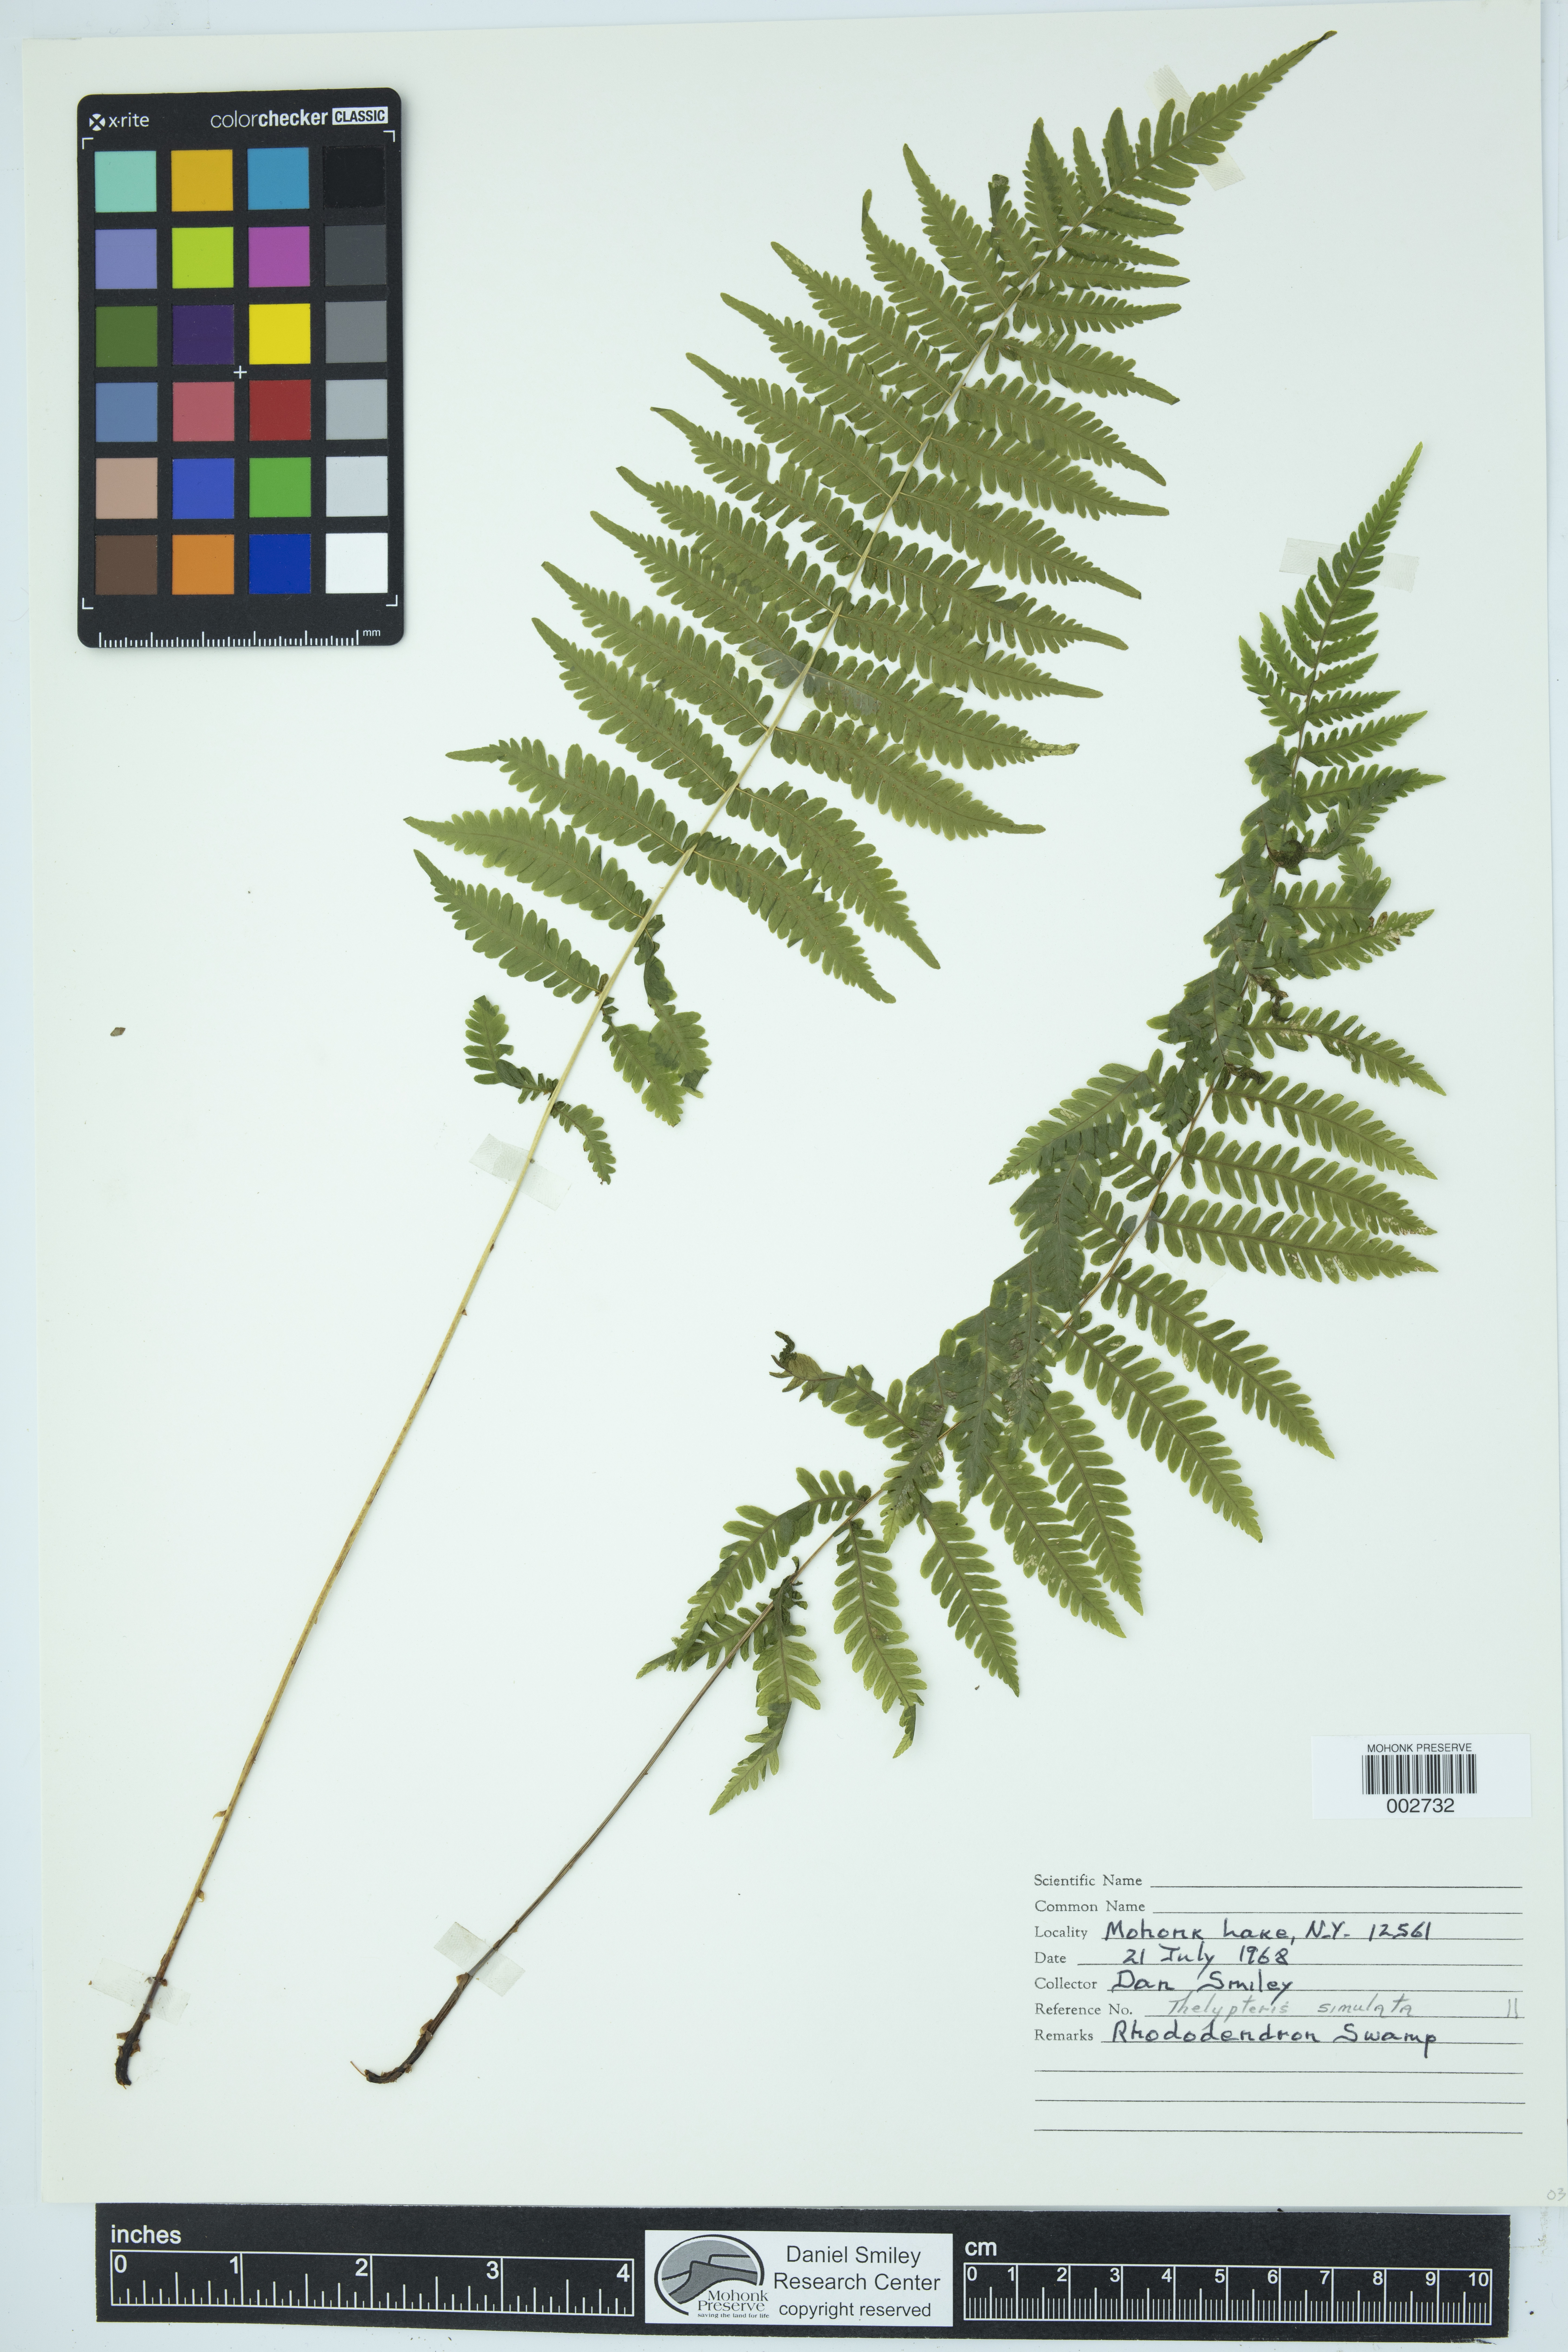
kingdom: Plantae
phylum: Tracheophyta
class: Polypodiopsida
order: Polypodiales
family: Thelypteridaceae
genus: Coryphopteris
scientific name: Coryphopteris simulata
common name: Bog fern
